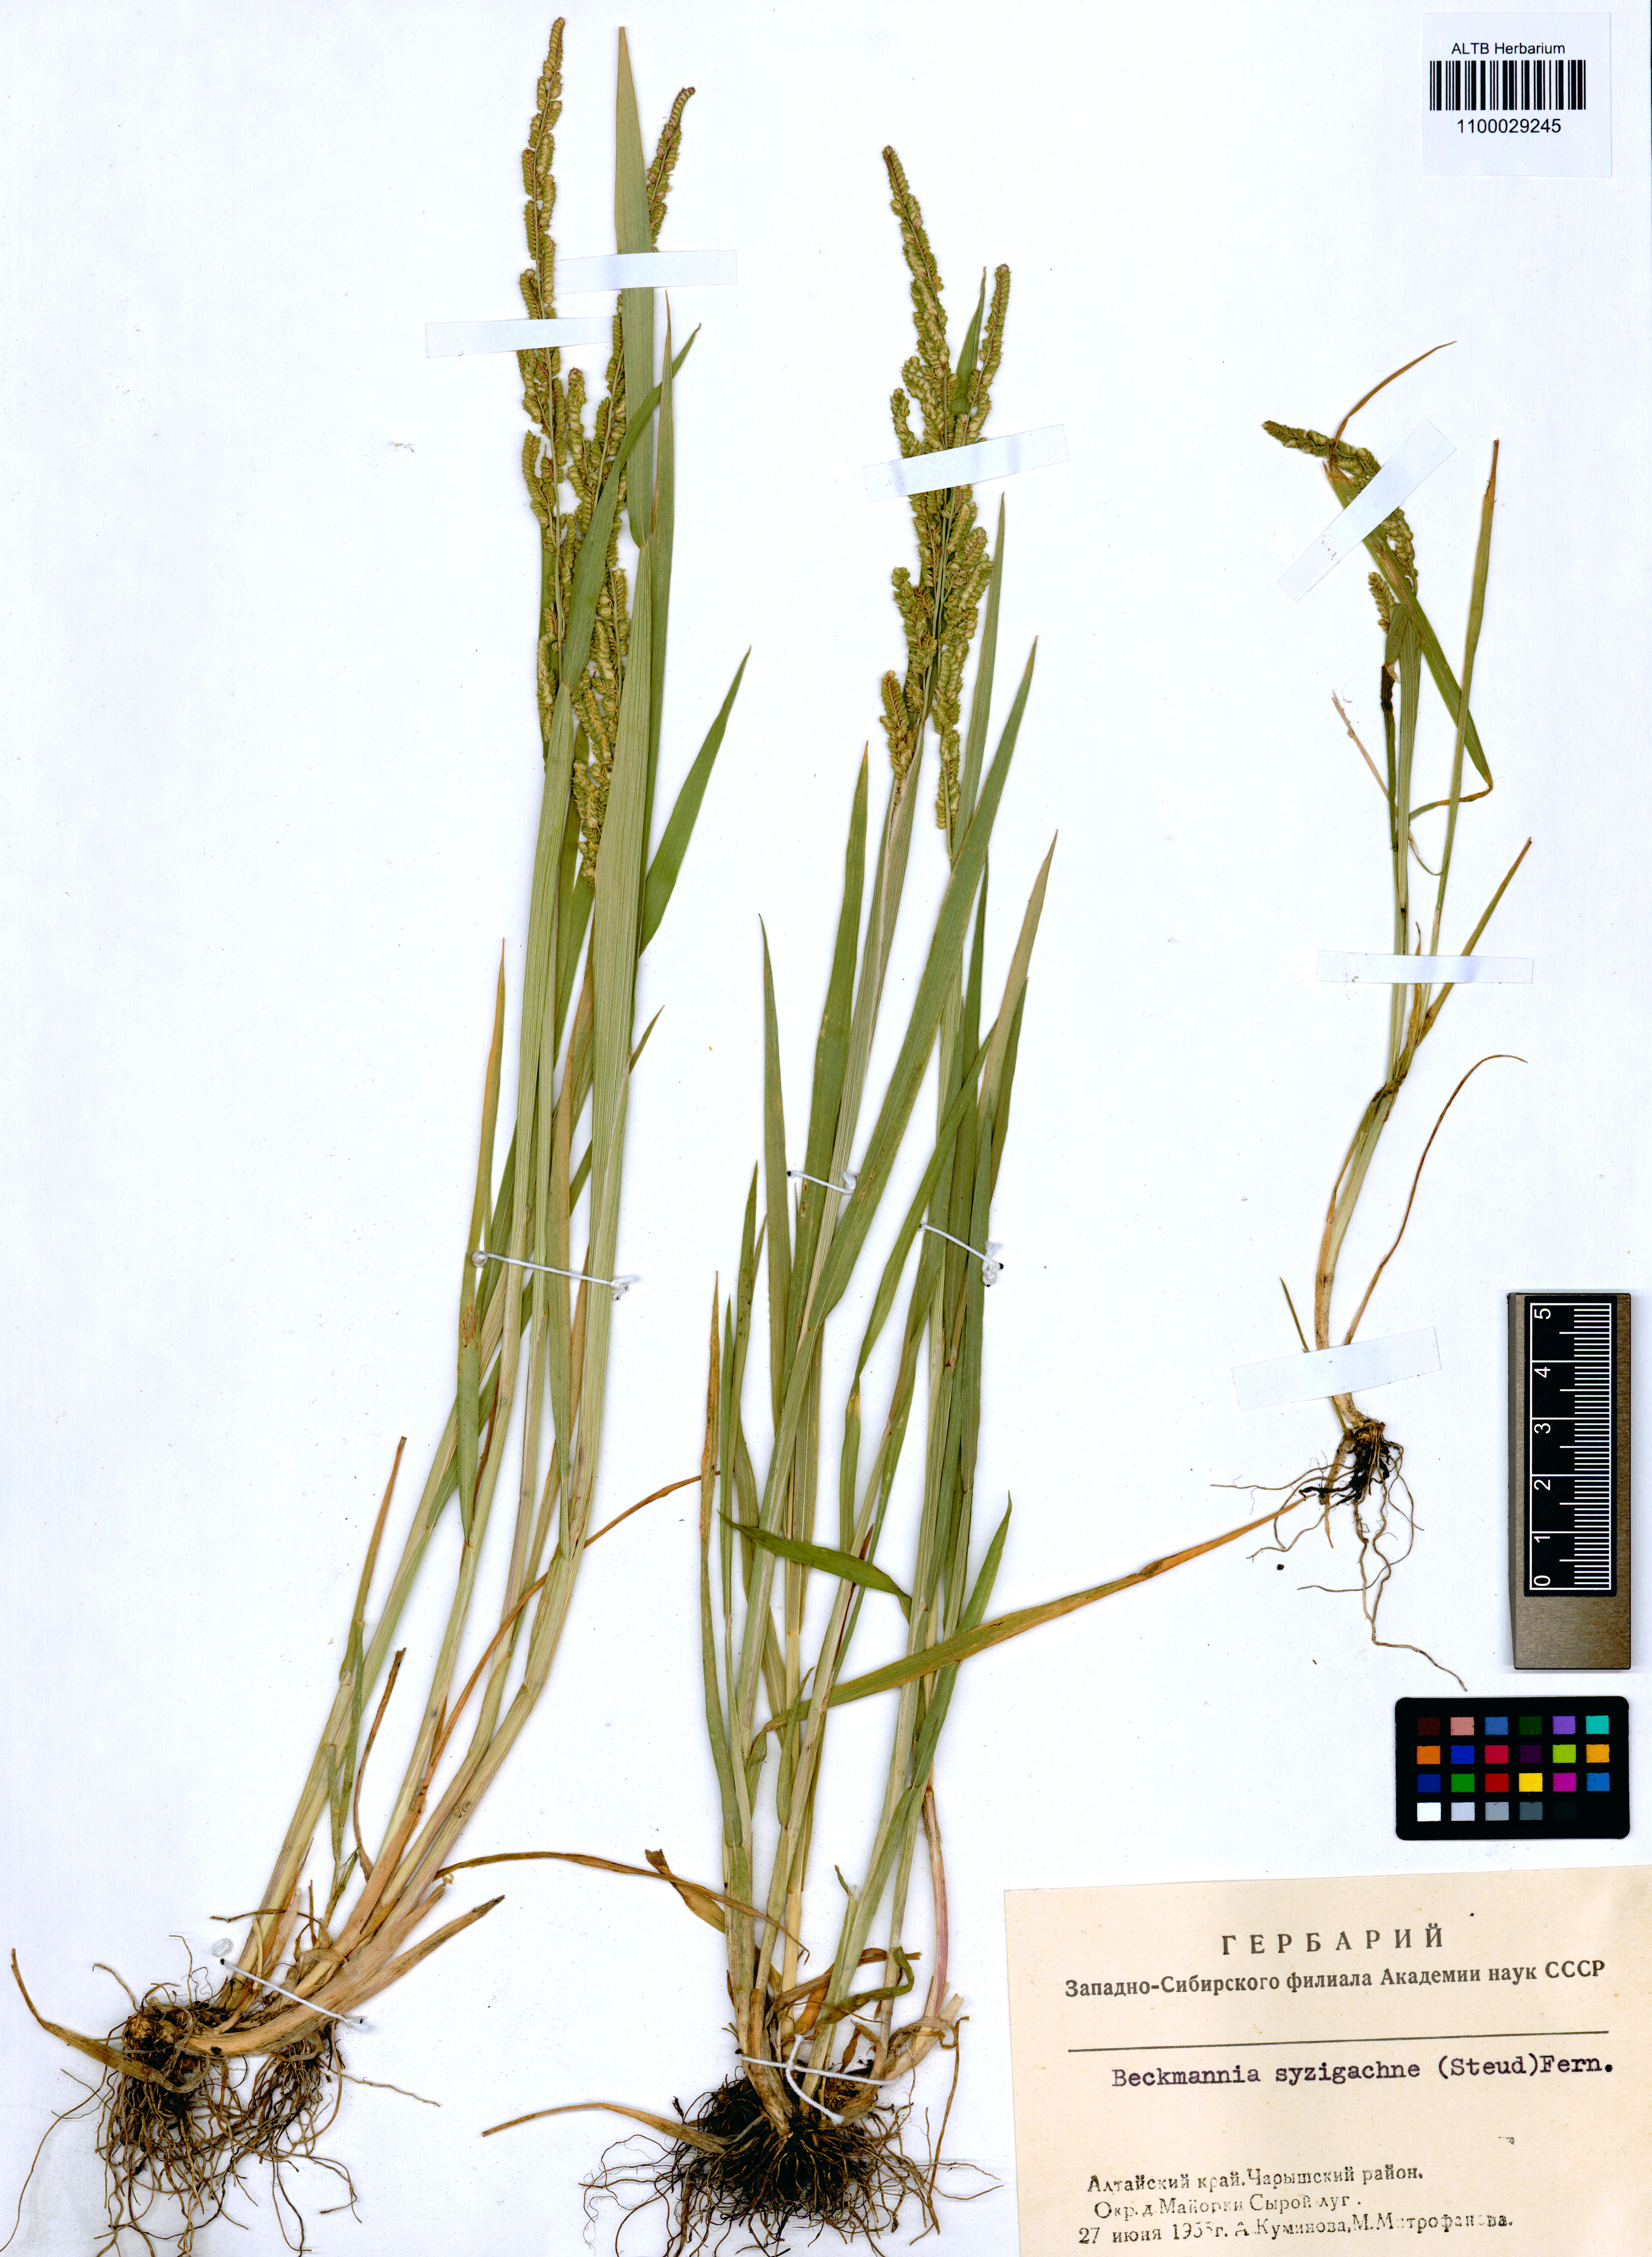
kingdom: Plantae
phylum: Tracheophyta
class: Liliopsida
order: Poales
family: Poaceae
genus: Beckmannia
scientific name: Beckmannia syzigachne
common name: American slough-grass
